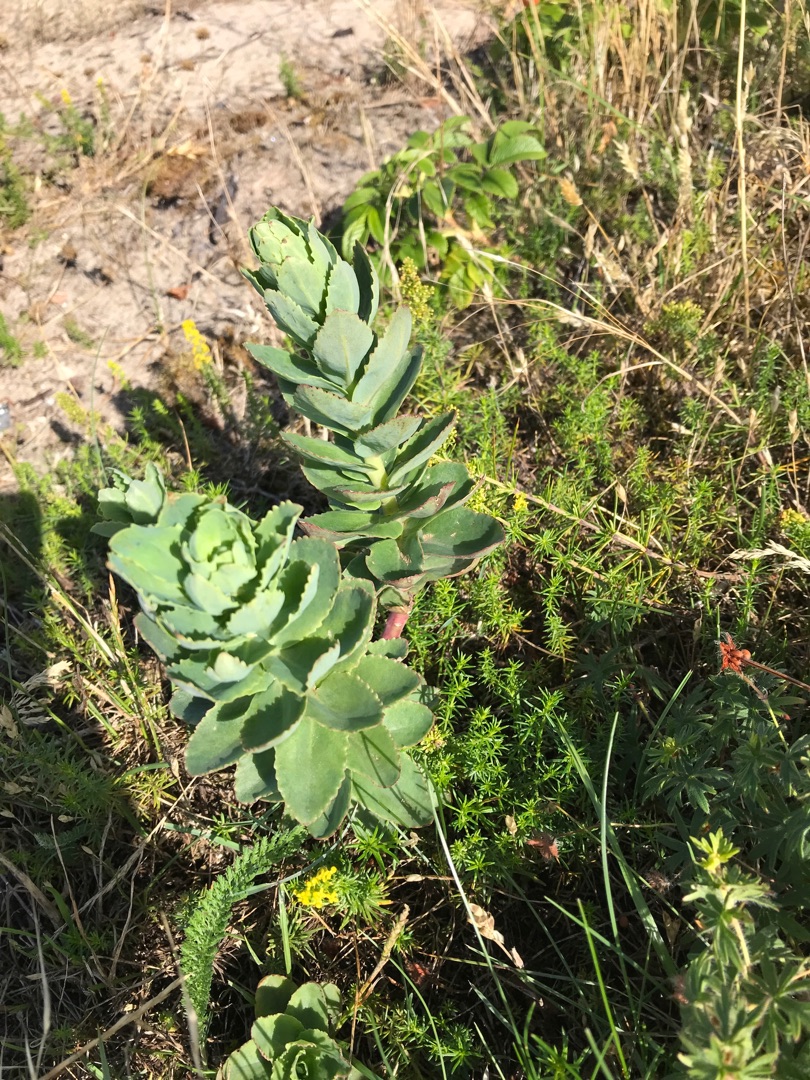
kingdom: Plantae
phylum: Tracheophyta
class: Magnoliopsida
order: Saxifragales
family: Crassulaceae
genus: Hylotelephium
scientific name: Hylotelephium telephium
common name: Sankthansurt
